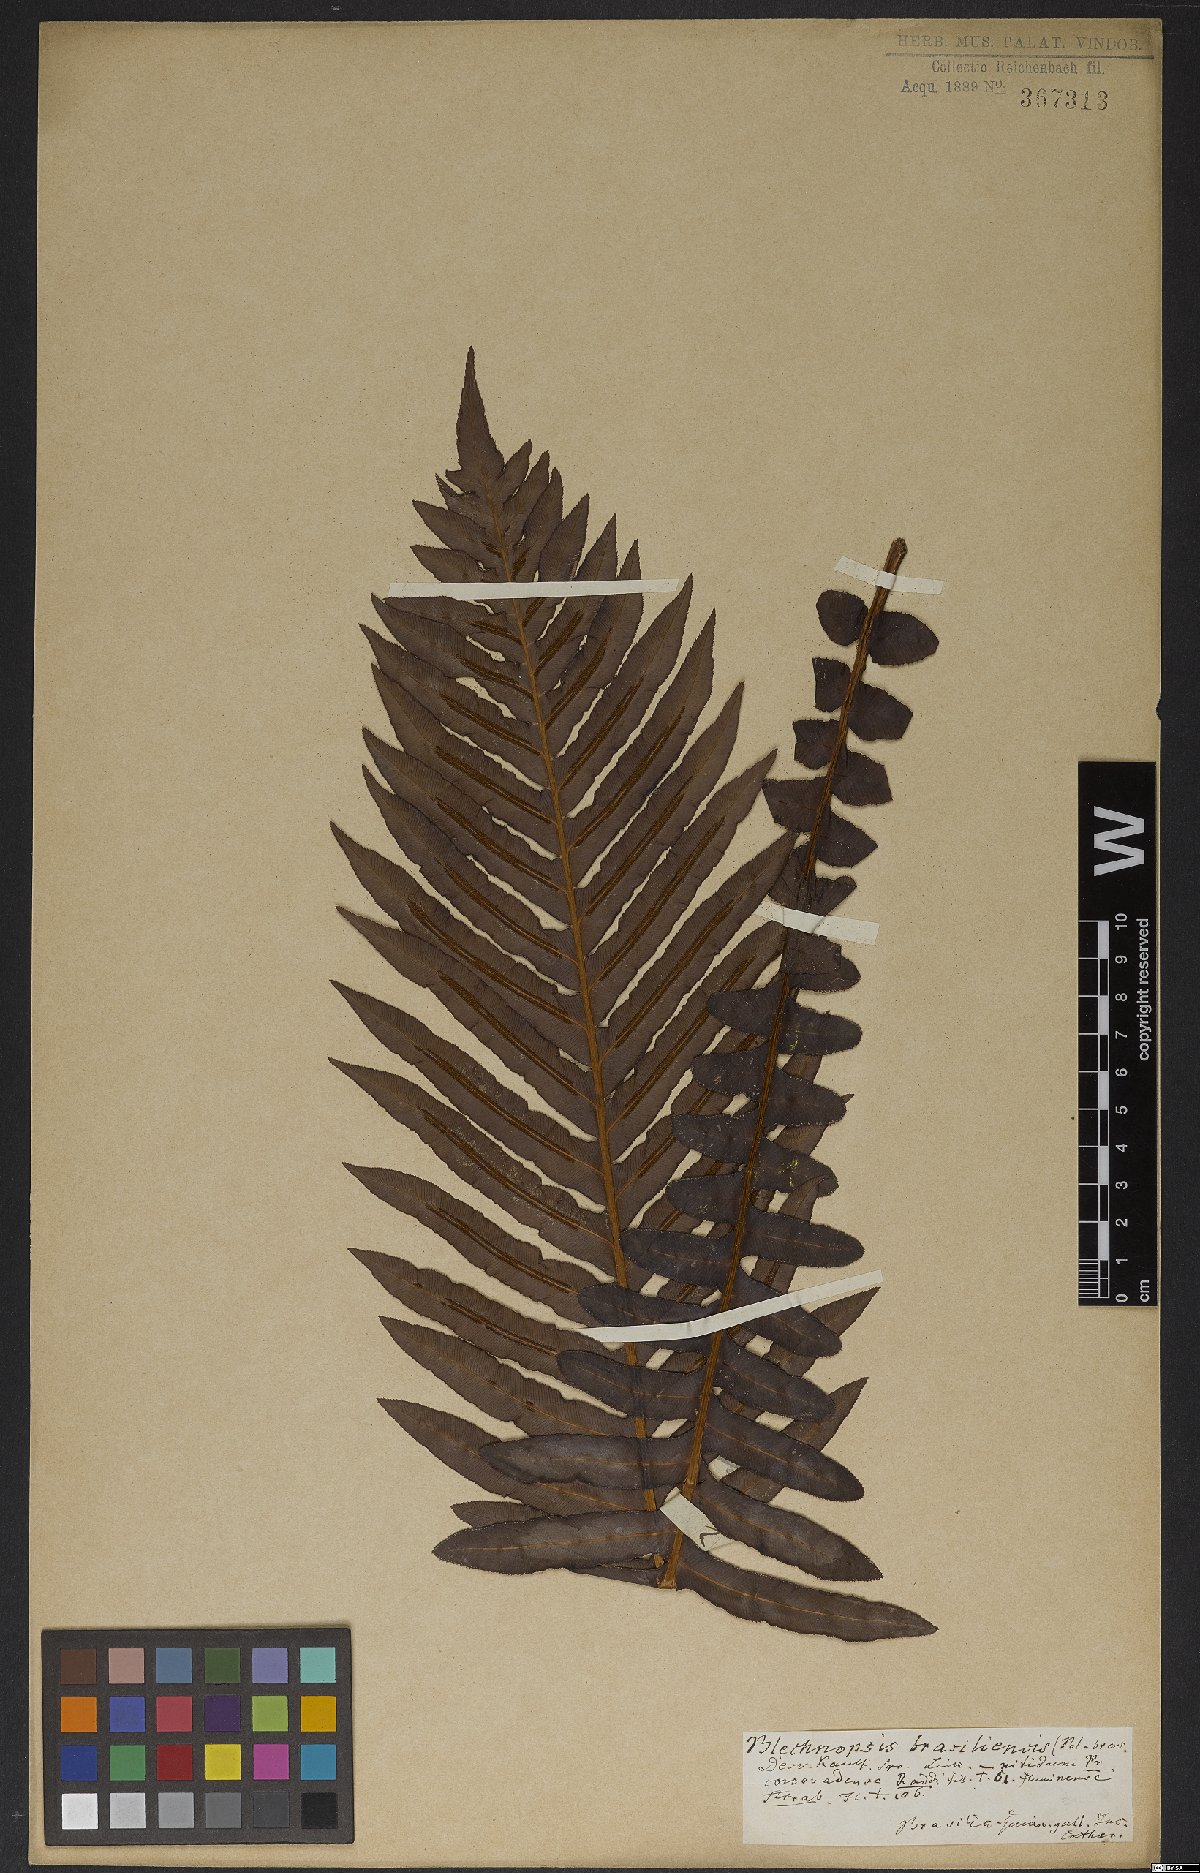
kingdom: Plantae
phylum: Tracheophyta
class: Polypodiopsida
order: Polypodiales
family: Blechnaceae
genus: Neoblechnum
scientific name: Neoblechnum brasiliense
